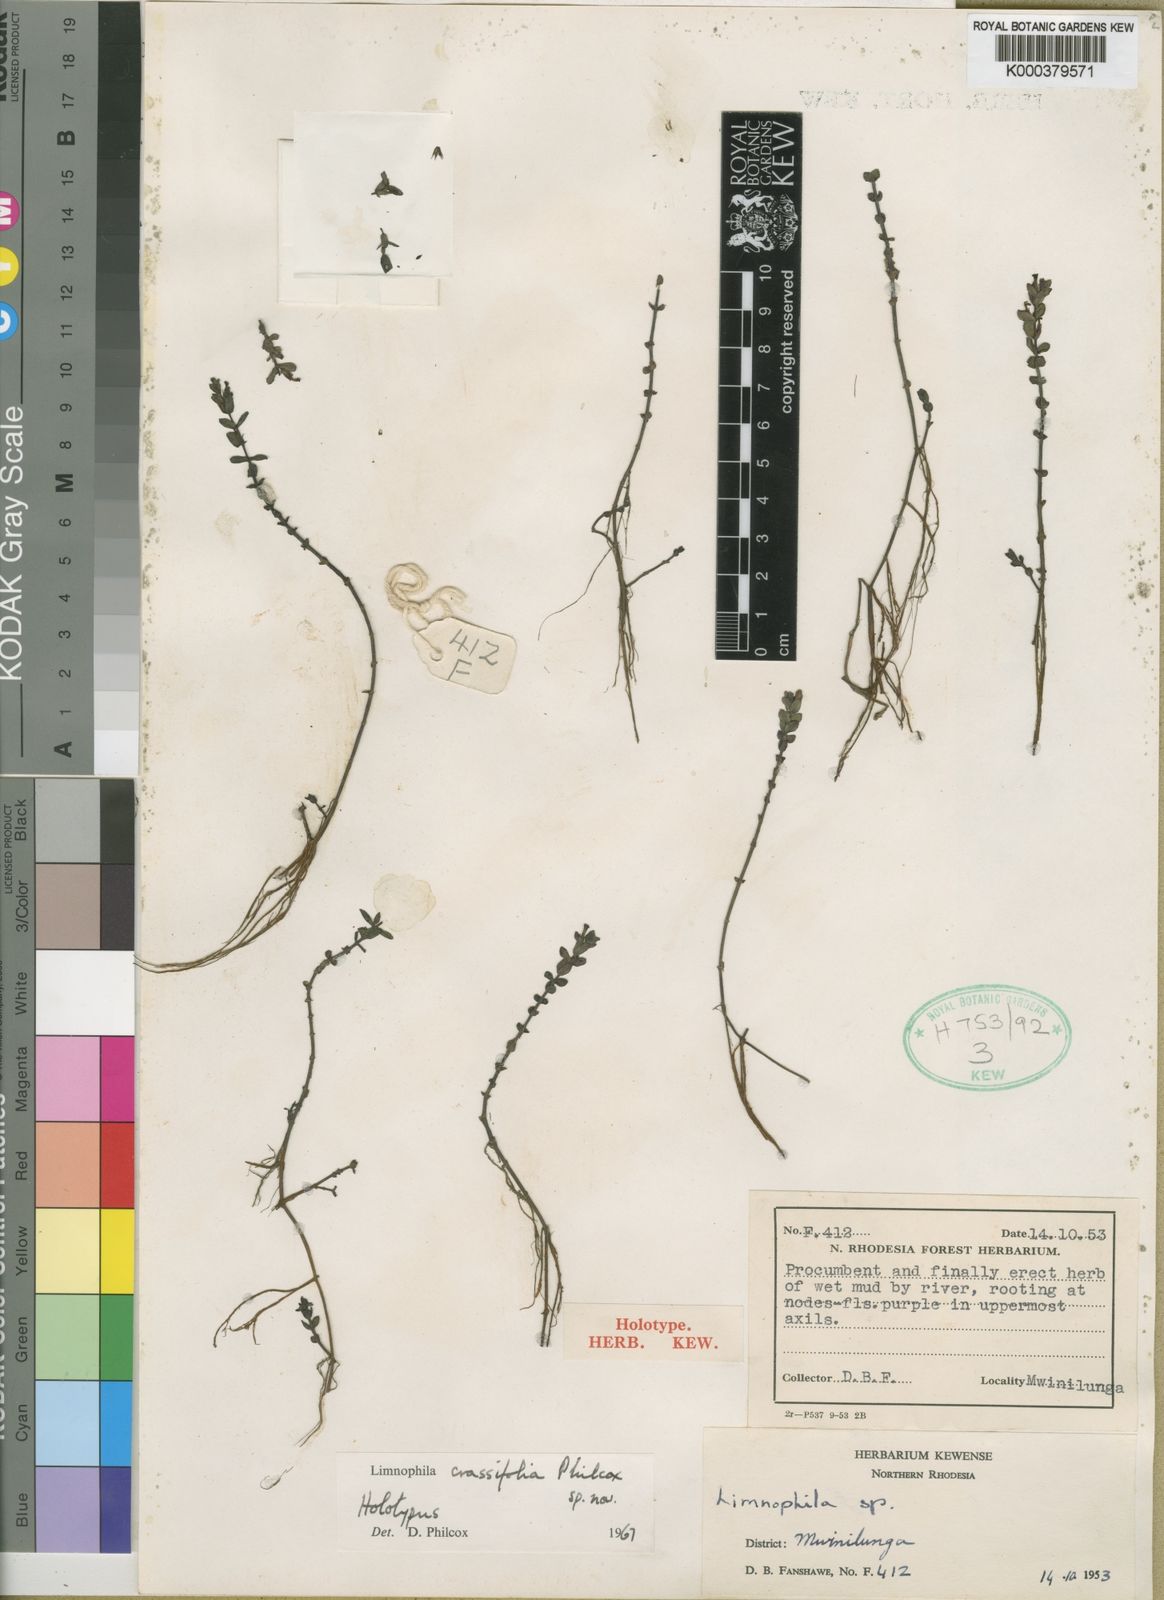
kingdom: Plantae
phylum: Tracheophyta
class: Magnoliopsida
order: Lamiales
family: Plantaginaceae
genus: Limnophila
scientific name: Limnophila crassifolia
